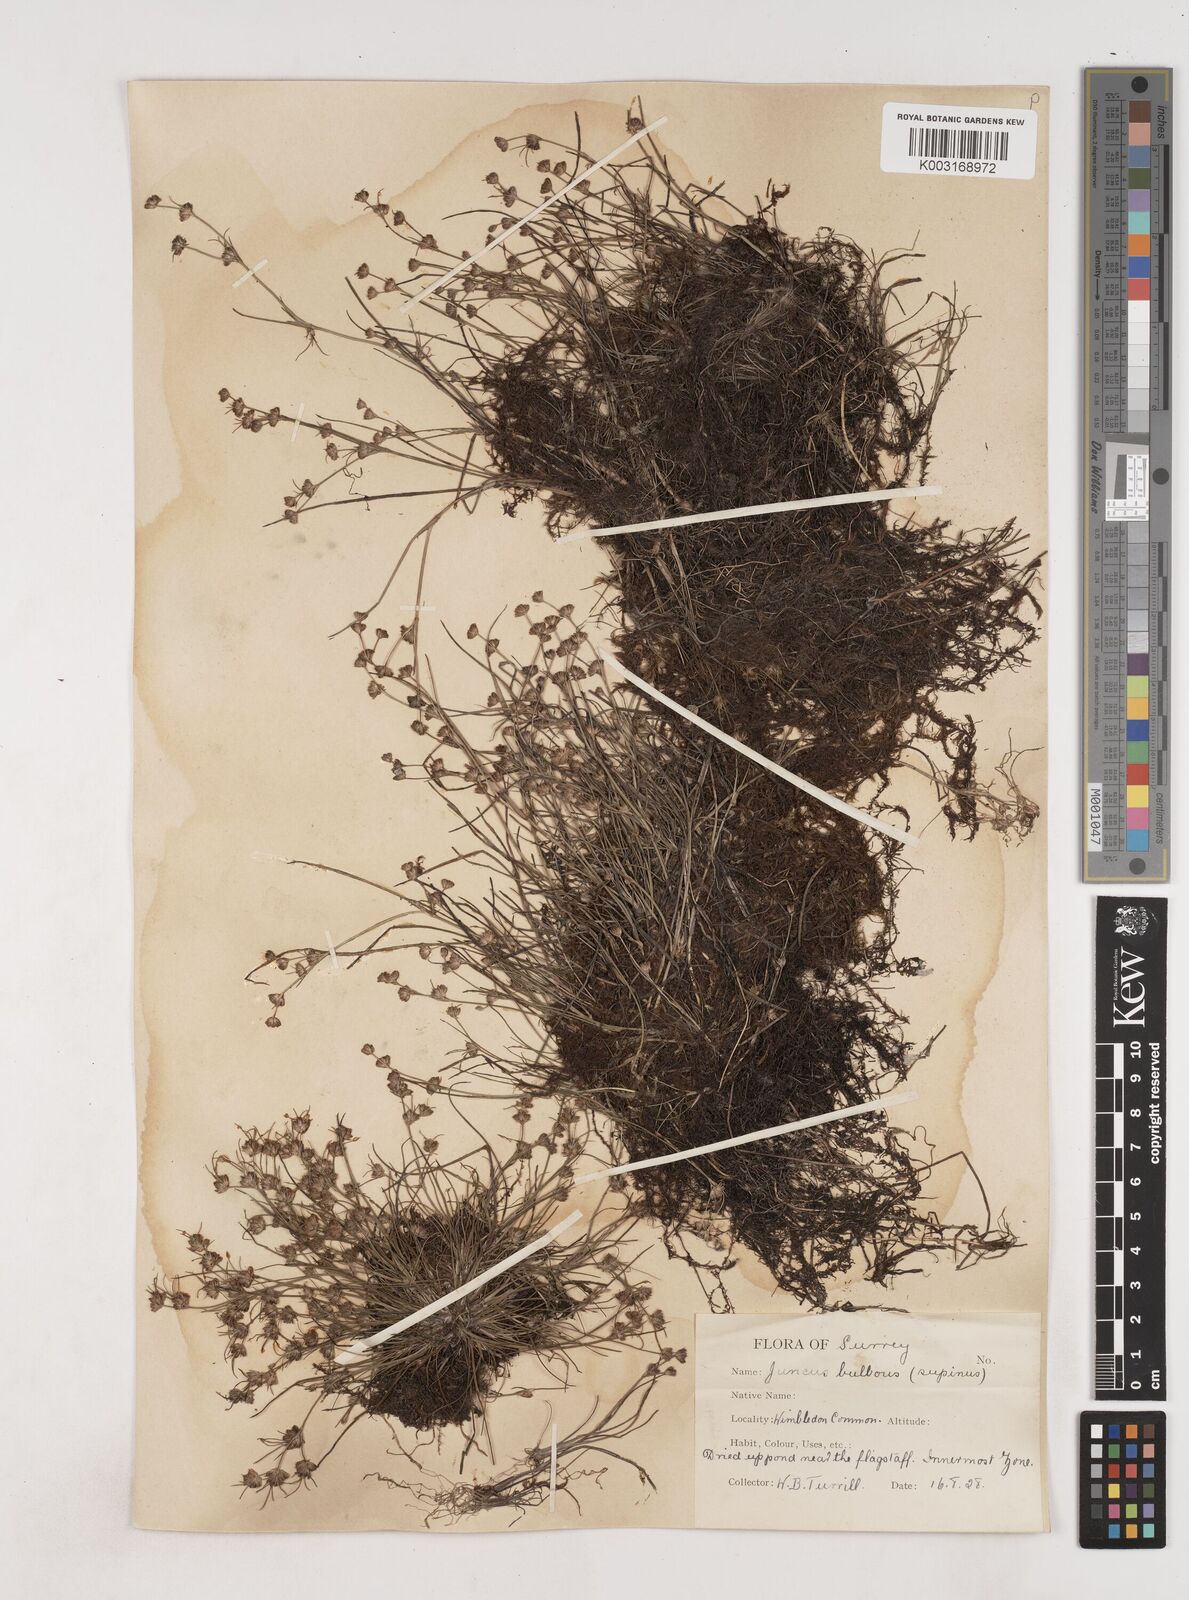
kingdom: Plantae
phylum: Tracheophyta
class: Liliopsida
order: Poales
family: Juncaceae
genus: Juncus
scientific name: Juncus bulbosus
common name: Bulbous rush
